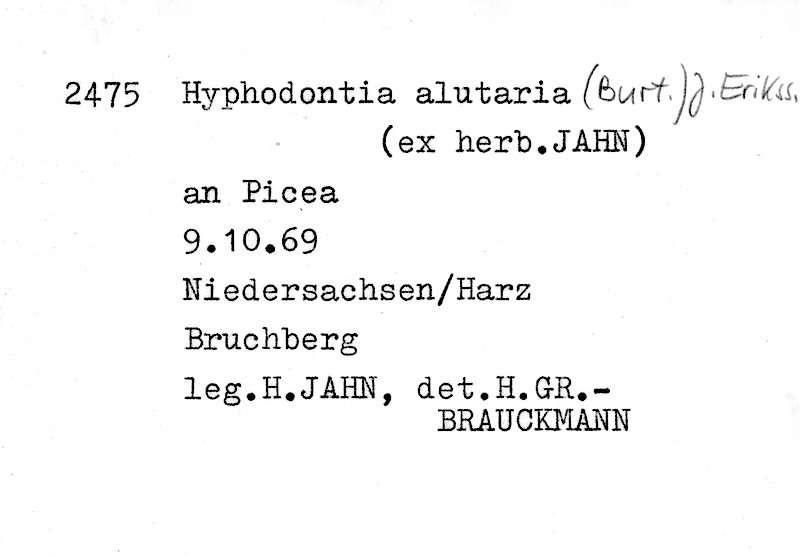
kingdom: Plantae
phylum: Tracheophyta
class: Pinopsida
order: Pinales
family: Pinaceae
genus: Picea
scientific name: Picea
